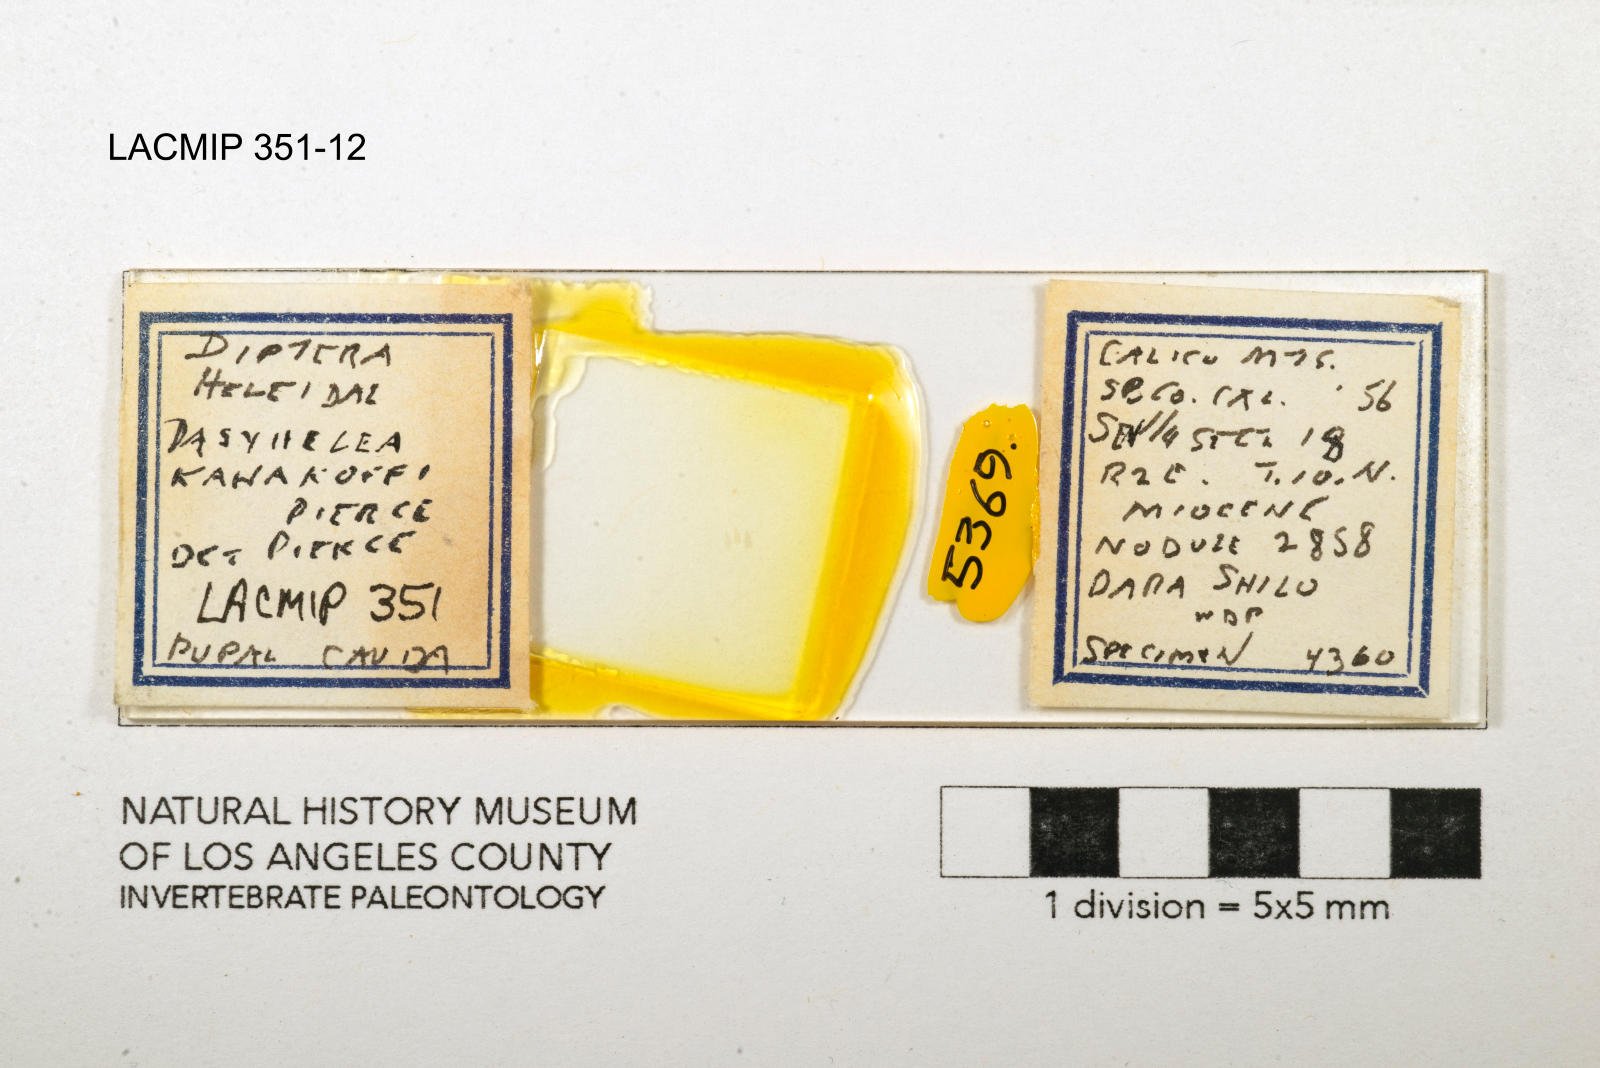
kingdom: Animalia
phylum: Arthropoda
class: Insecta
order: Diptera
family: Ceratopogonidae
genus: Dasyhelea
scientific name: Dasyhelea kanakoffi
